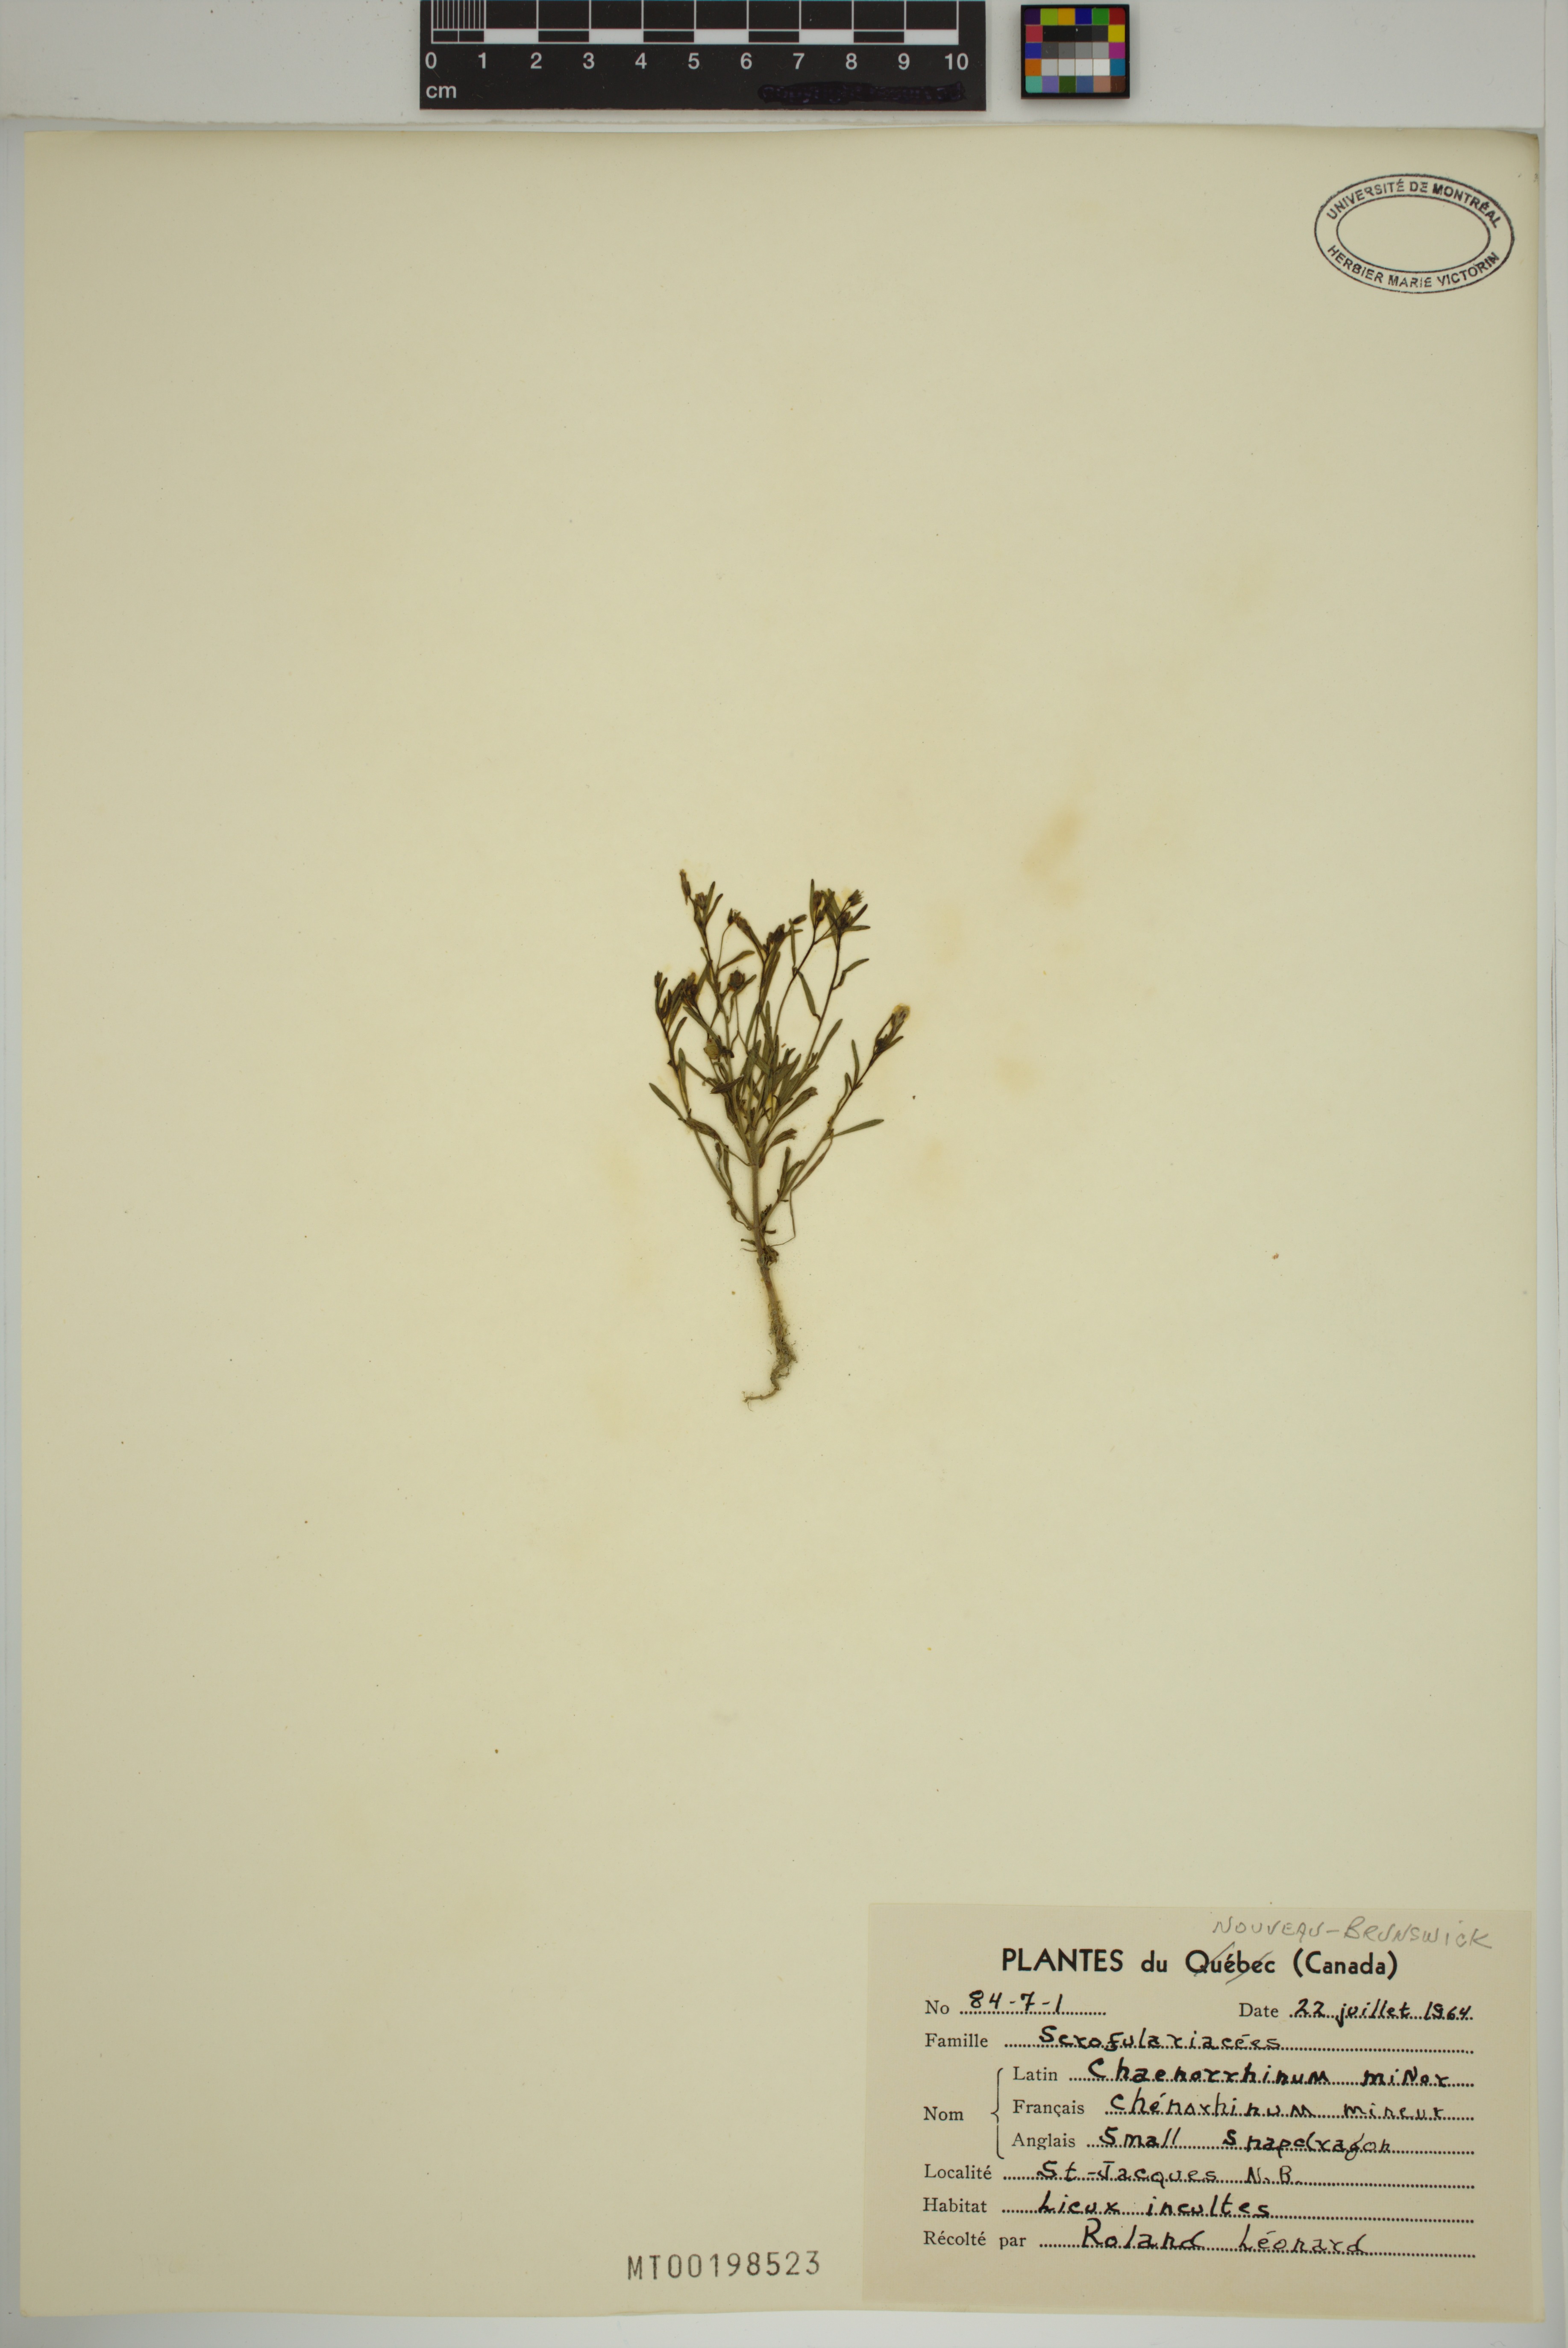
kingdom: Plantae
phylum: Tracheophyta
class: Magnoliopsida
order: Lamiales
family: Plantaginaceae
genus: Chaenorhinum
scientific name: Chaenorhinum minus
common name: Dwarf snapdragon
